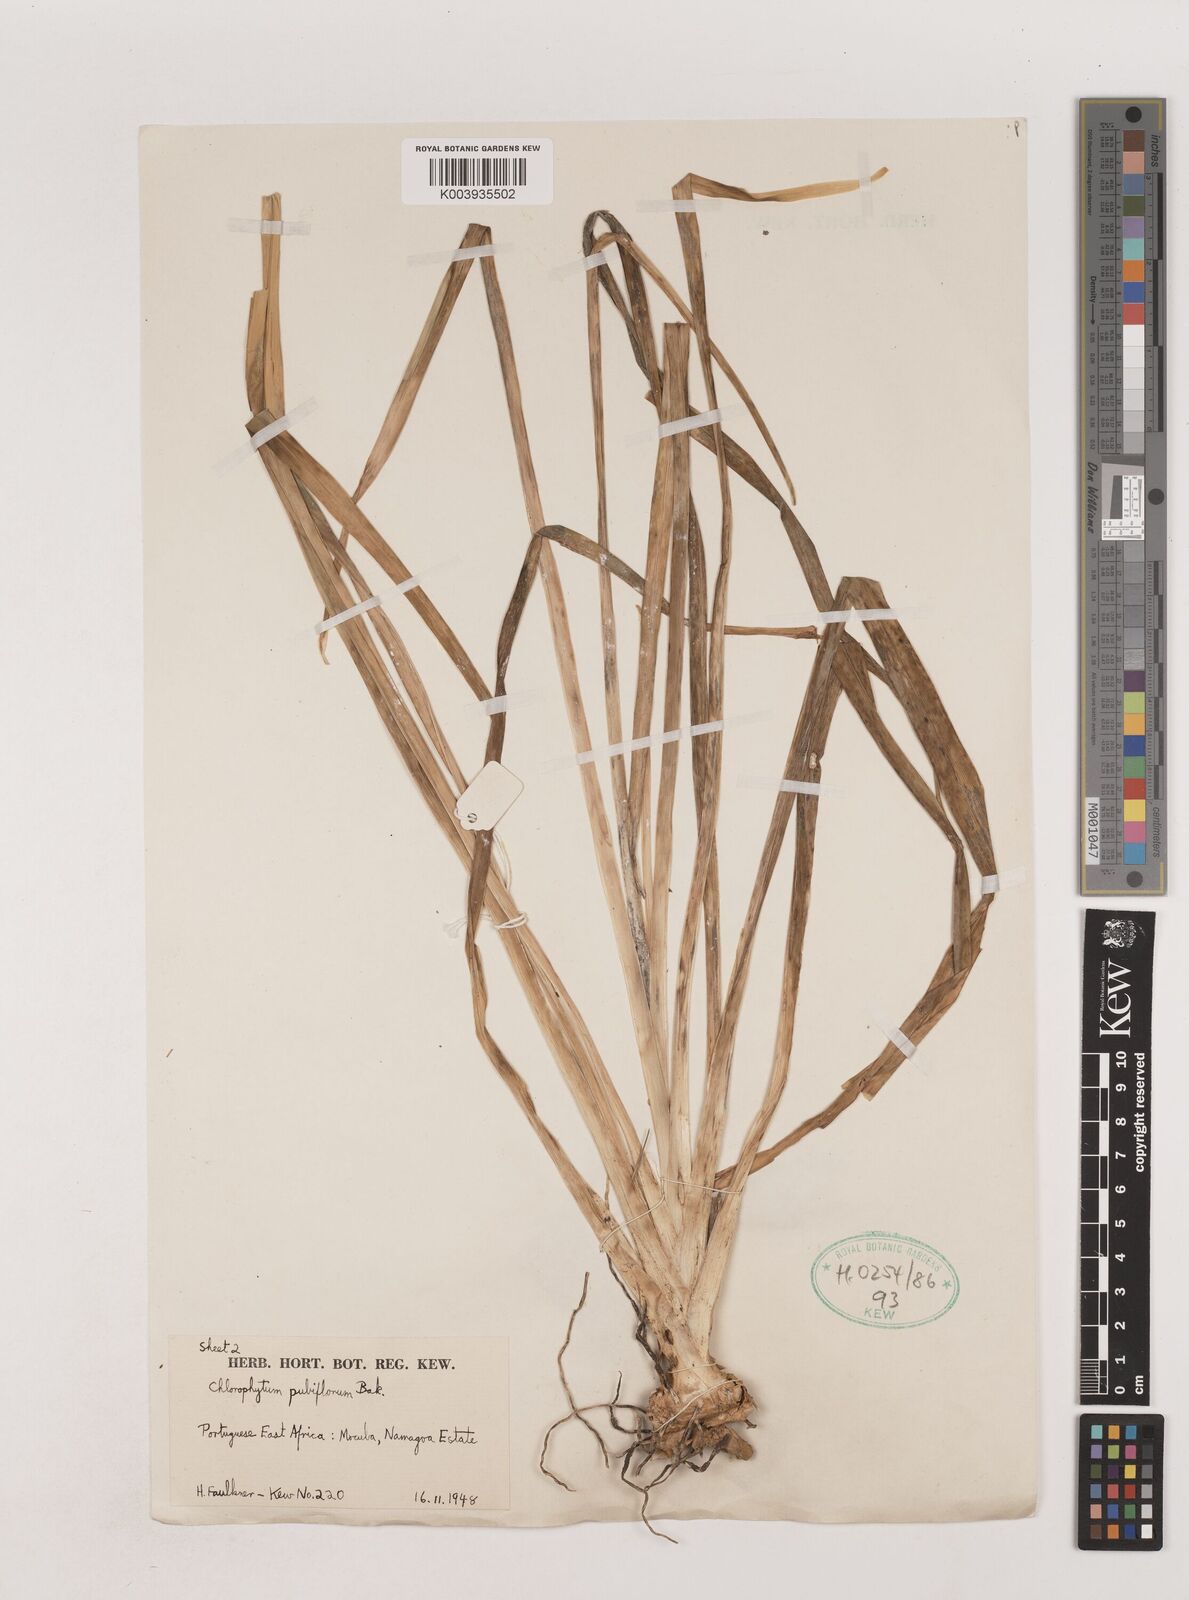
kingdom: Plantae
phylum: Tracheophyta
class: Liliopsida
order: Asparagales
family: Asparagaceae
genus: Chlorophytum
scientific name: Chlorophytum pubiflorum
